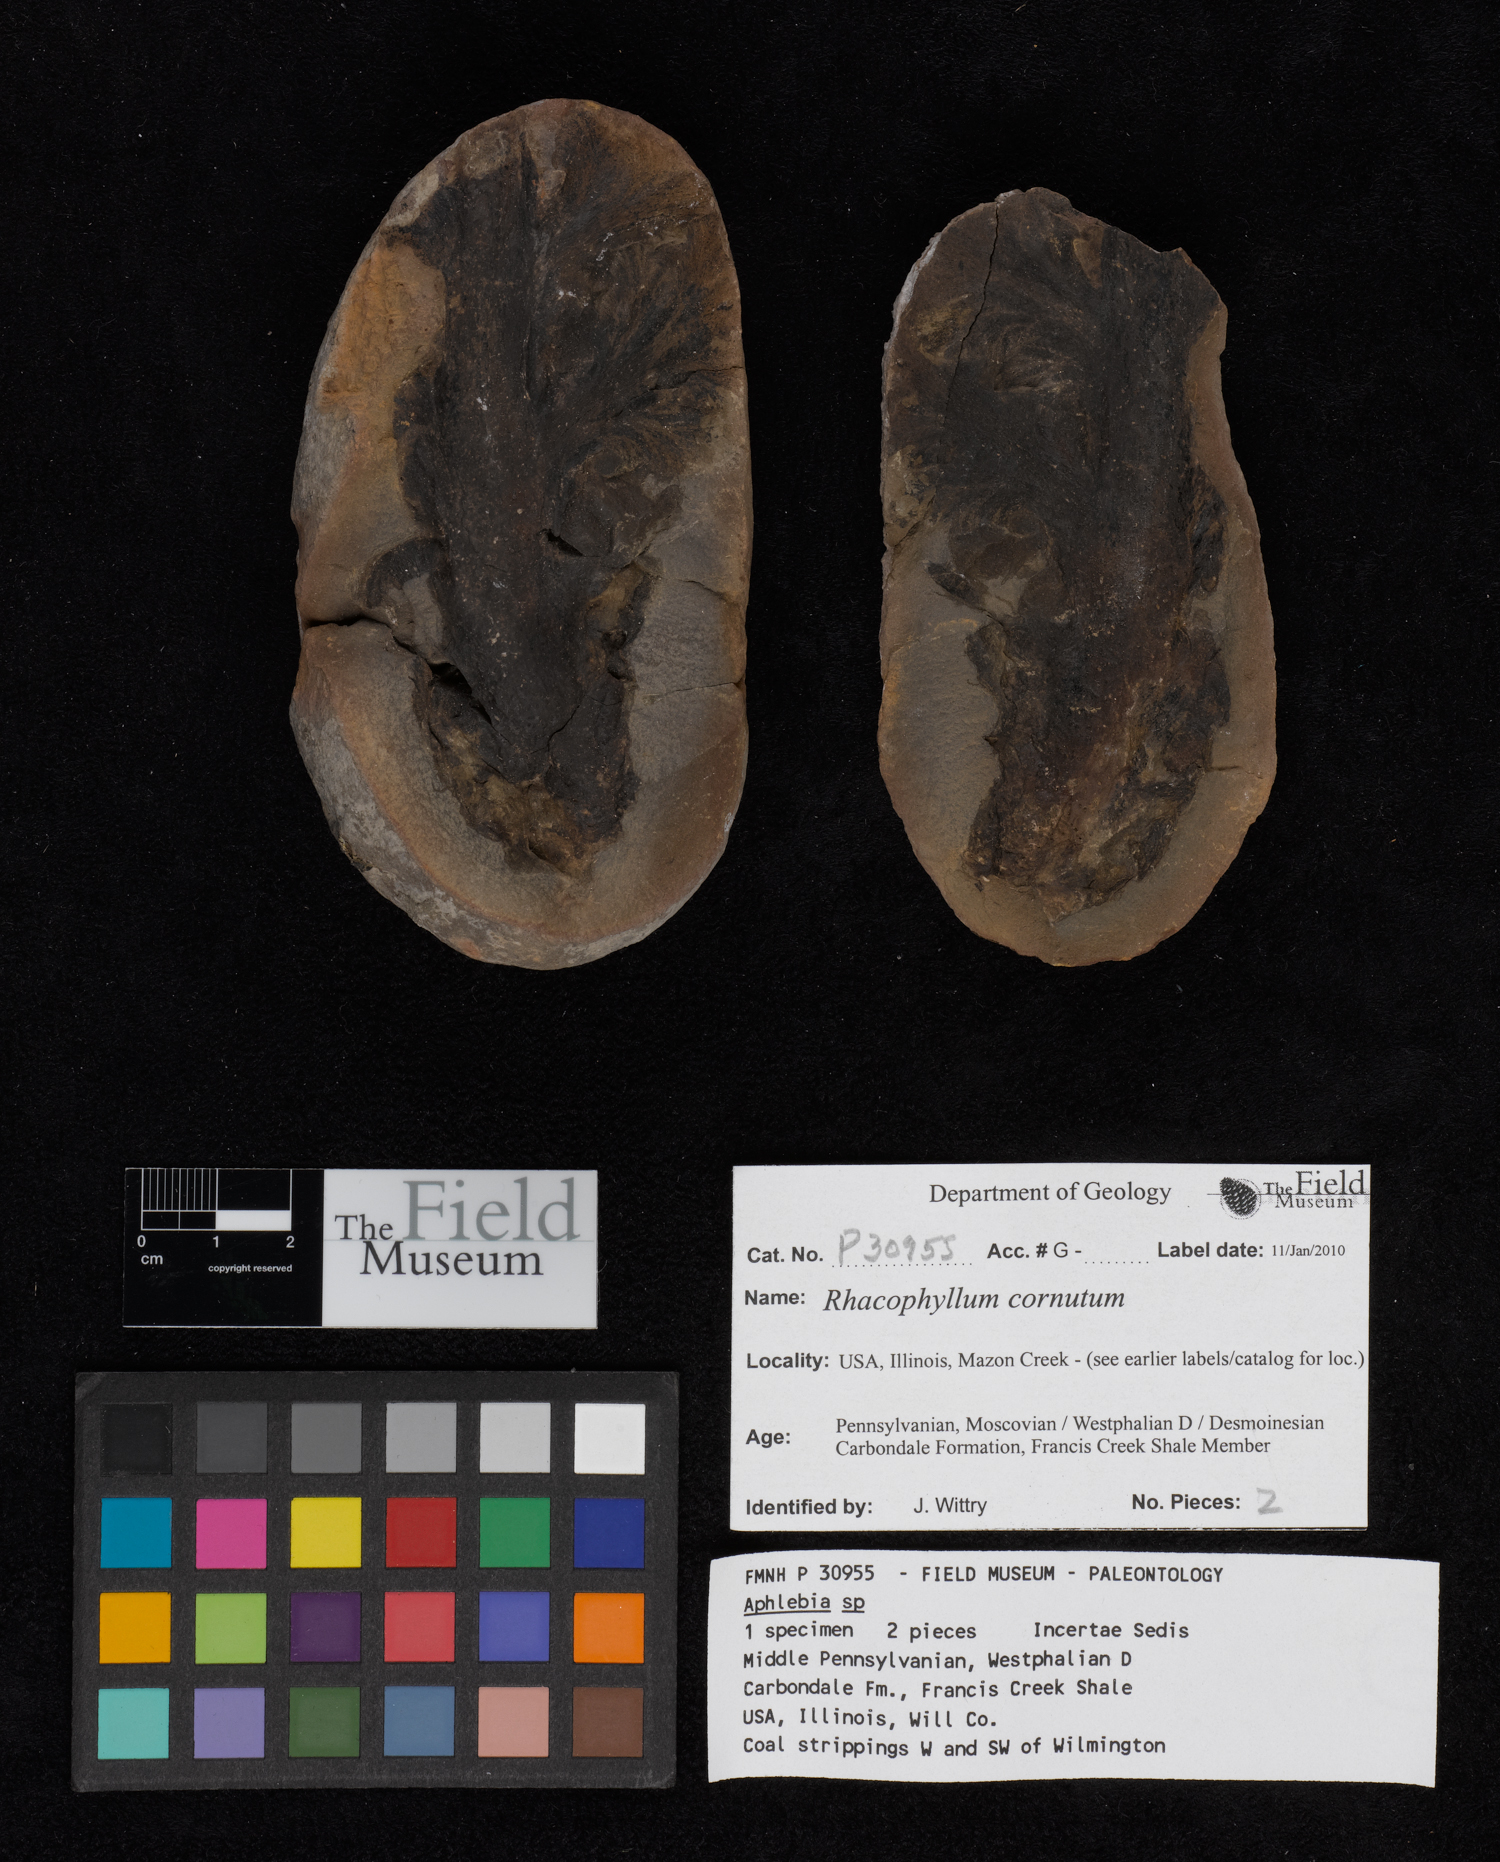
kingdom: Plantae
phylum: Tracheophyta
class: Polypodiopsida
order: Marattiales
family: Asterothecaceae
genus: Pecopteris
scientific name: Pecopteris
